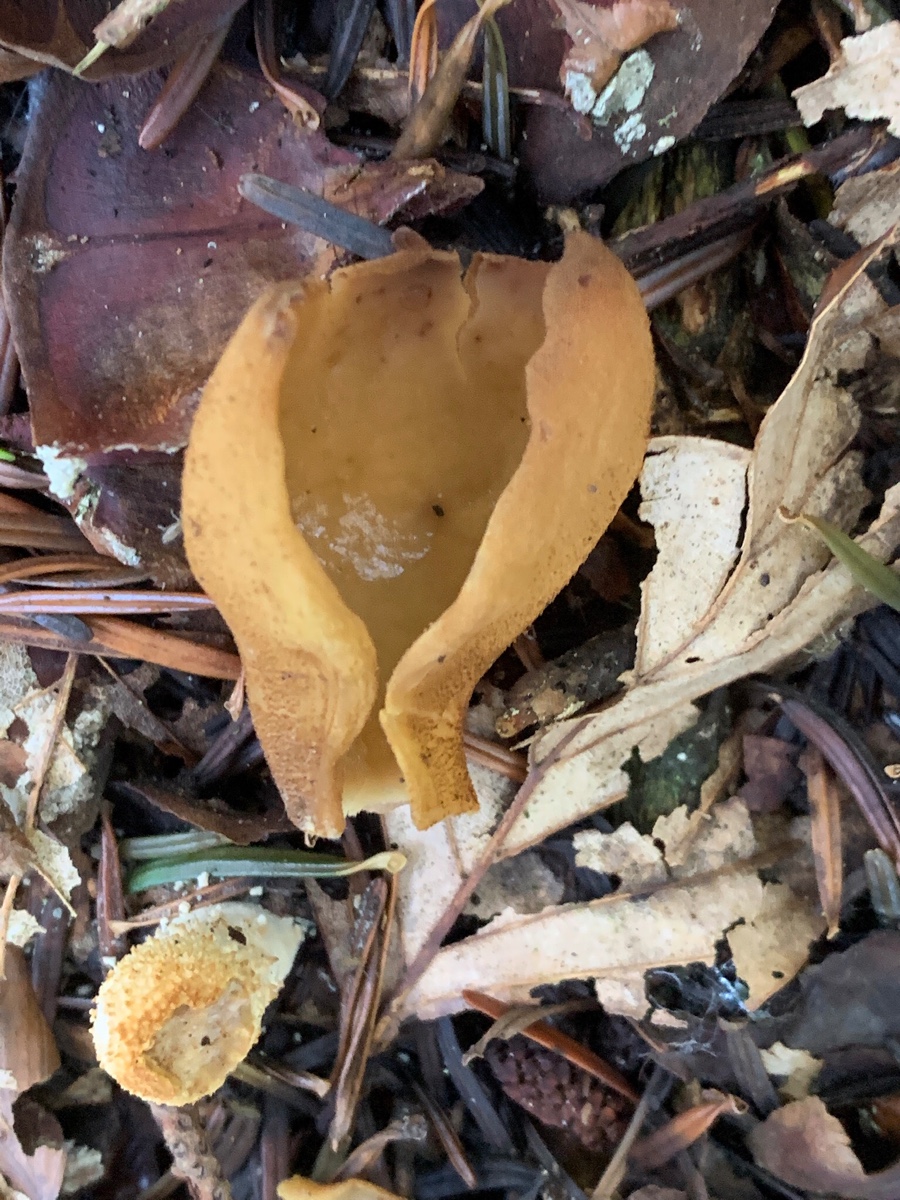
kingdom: Fungi
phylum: Ascomycota
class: Pezizomycetes
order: Pezizales
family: Otideaceae
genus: Otidea
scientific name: Otidea onotica
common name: æsel-ørebæger
